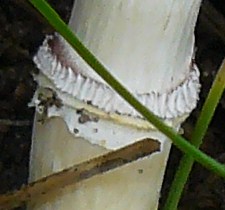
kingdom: Fungi
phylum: Basidiomycota
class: Agaricomycetes
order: Agaricales
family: Hymenogastraceae
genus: Psilocybe
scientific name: Psilocybe coronilla
